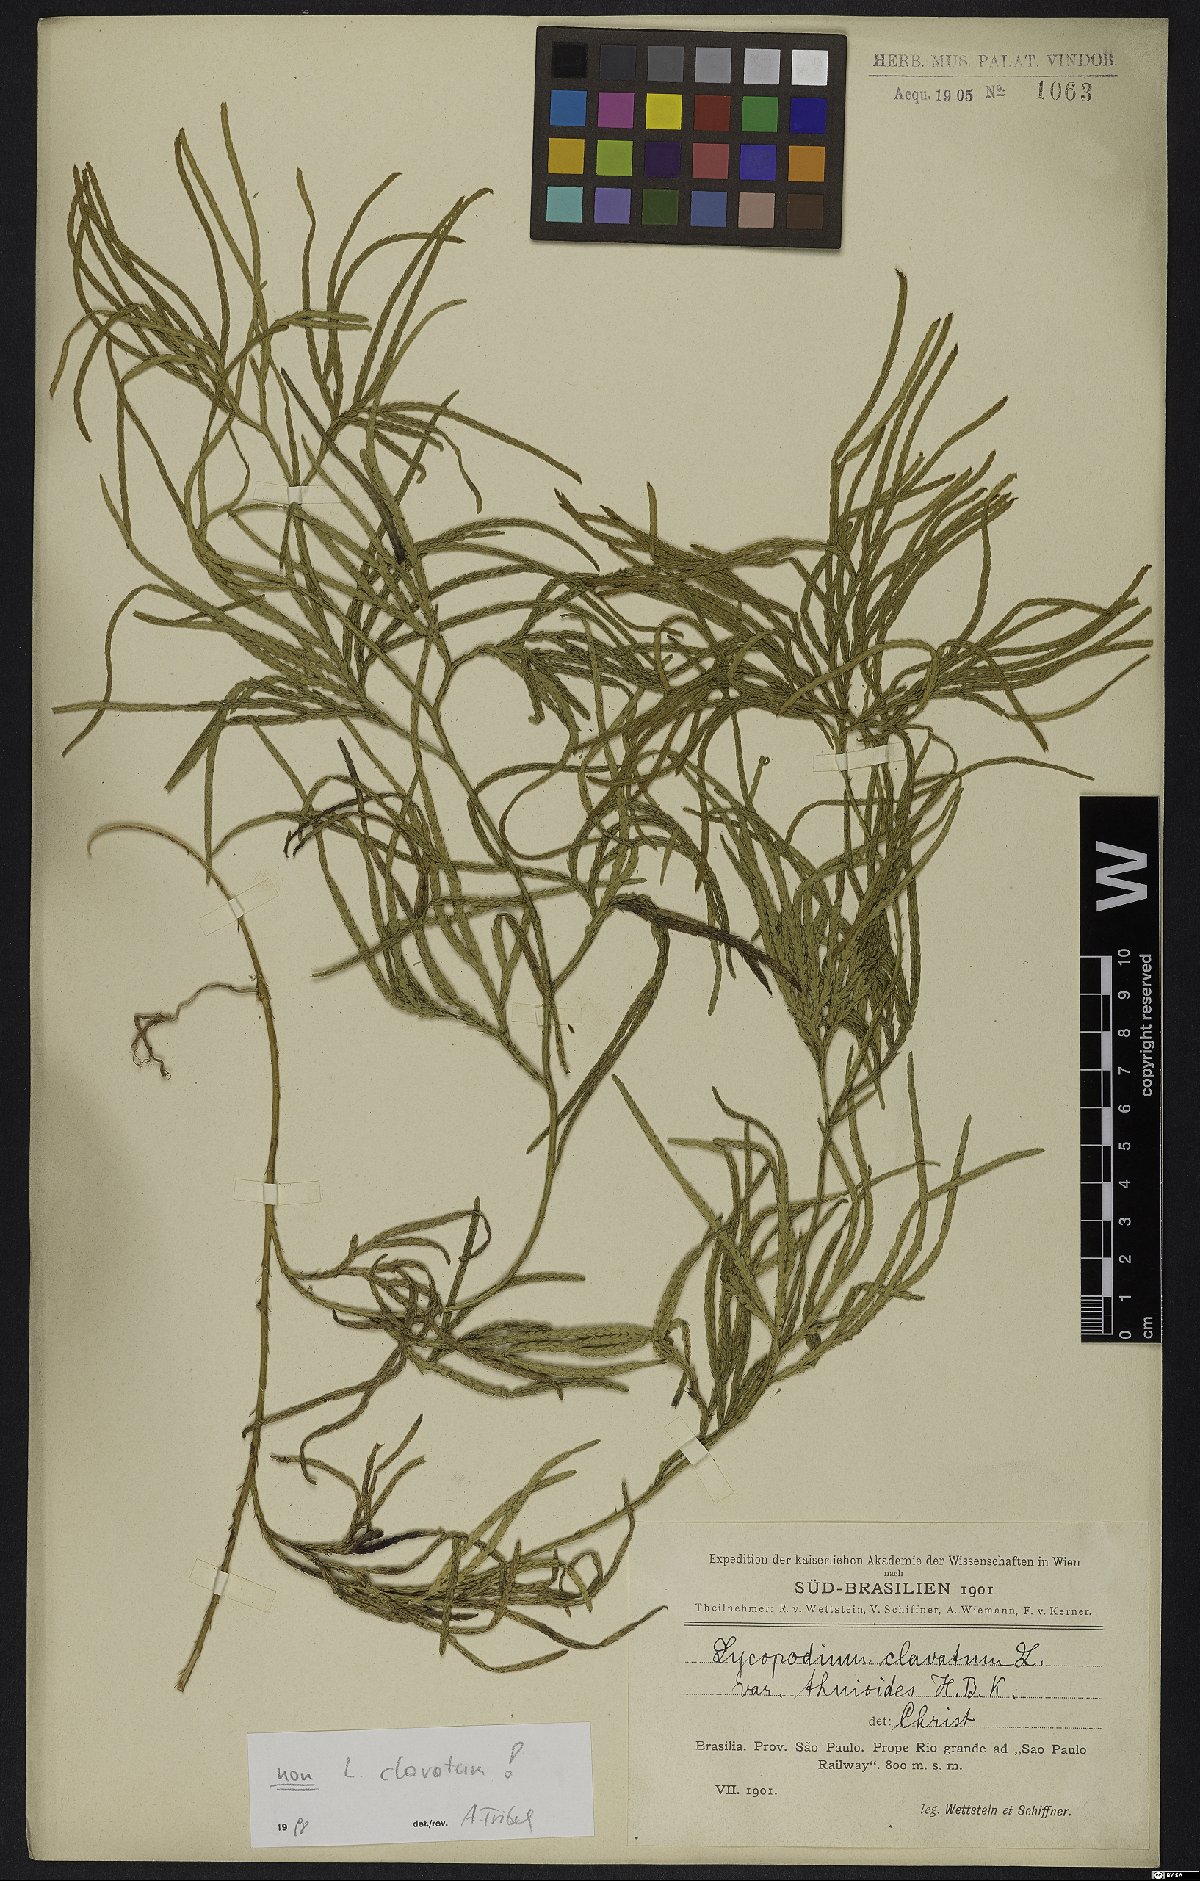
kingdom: Plantae
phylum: Tracheophyta
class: Lycopodiopsida
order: Lycopodiales
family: Lycopodiaceae
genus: Lycopodium
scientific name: Lycopodium
